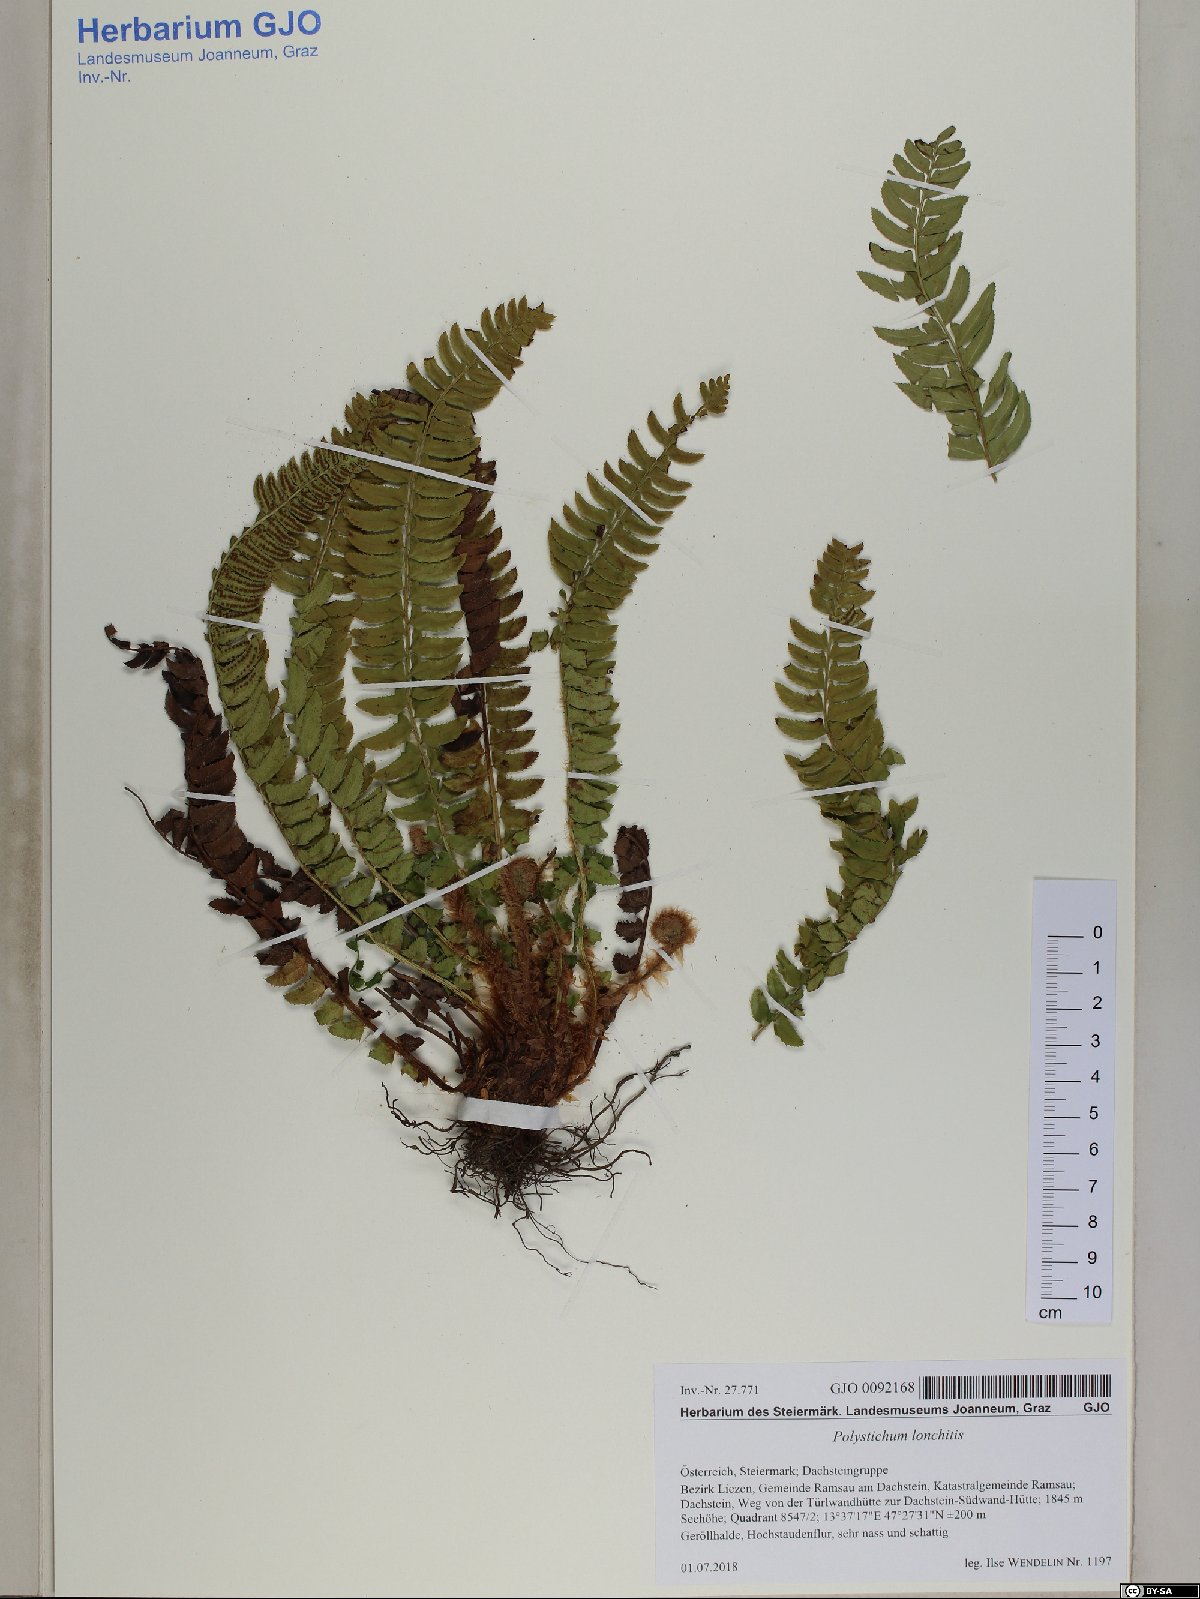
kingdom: Plantae
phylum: Tracheophyta
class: Polypodiopsida
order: Polypodiales
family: Dryopteridaceae
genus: Polystichum
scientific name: Polystichum lonchitis
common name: Holly fern
